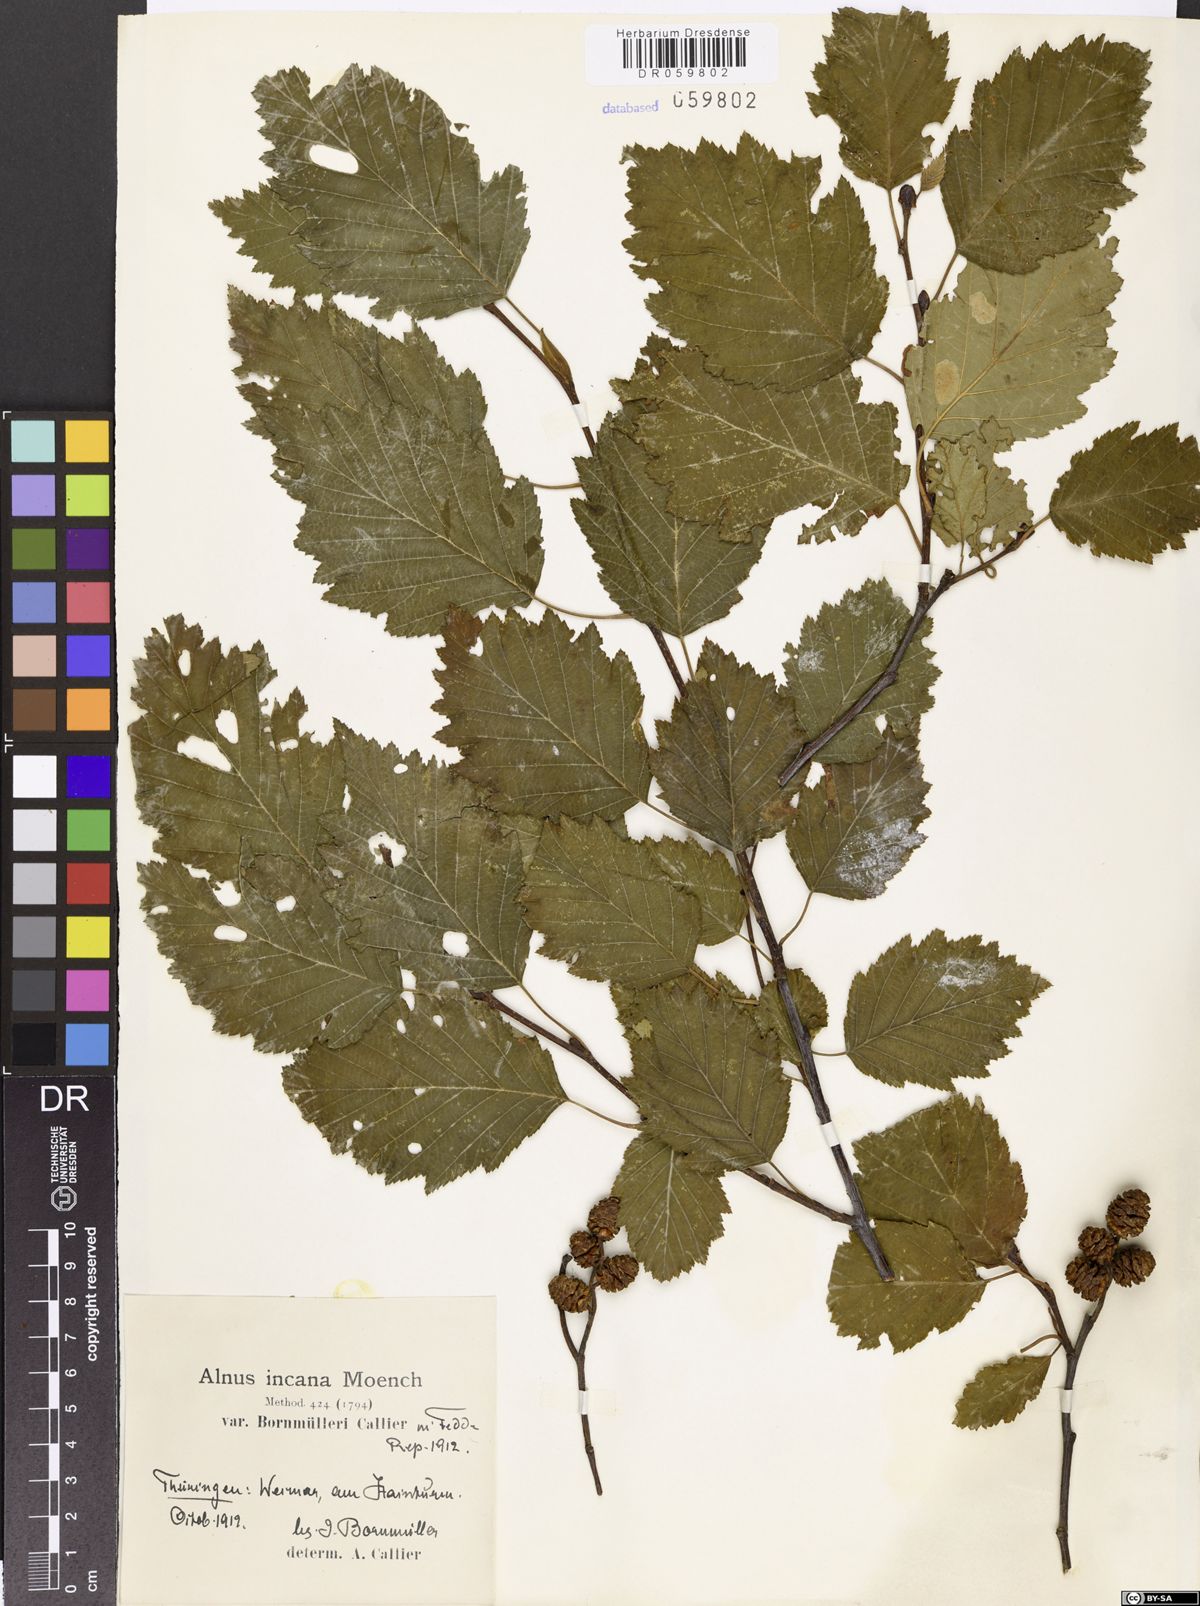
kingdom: Plantae
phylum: Tracheophyta
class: Magnoliopsida
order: Fagales
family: Betulaceae
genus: Alnus
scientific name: Alnus incana
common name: Grey alder
